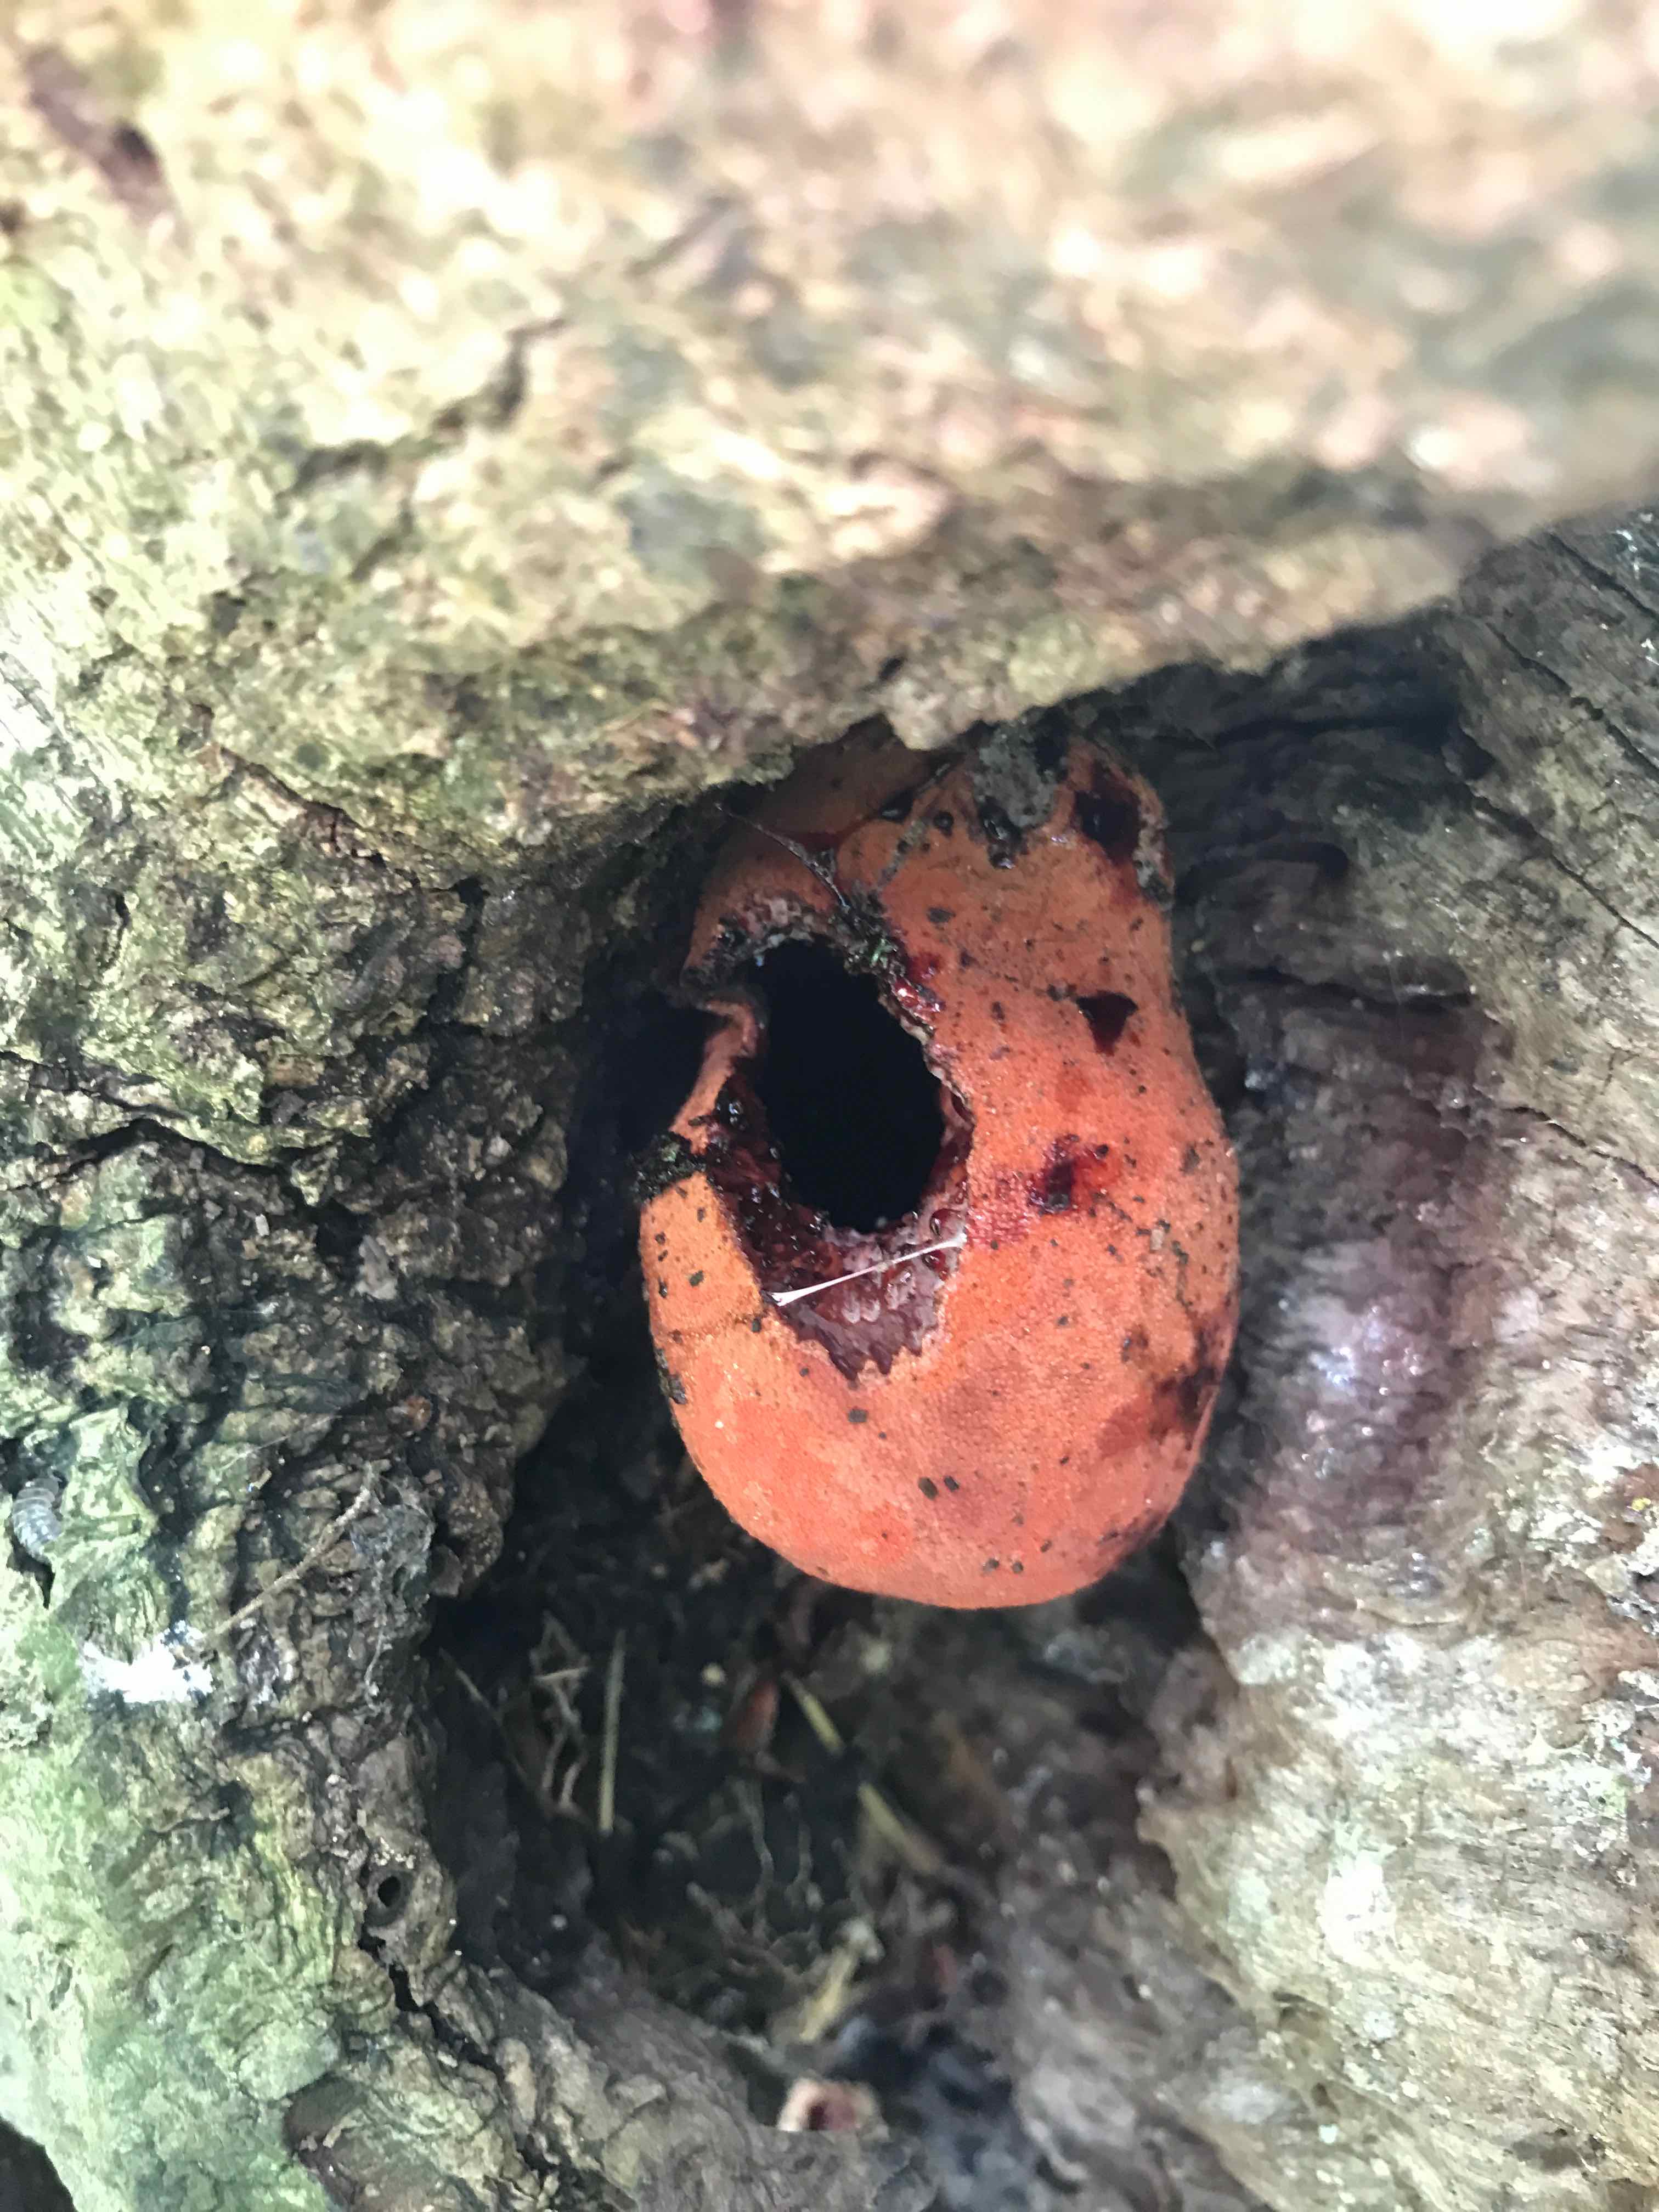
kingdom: Fungi
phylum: Basidiomycota
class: Agaricomycetes
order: Agaricales
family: Fistulinaceae
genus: Fistulina
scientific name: Fistulina hepatica
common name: oksetunge
